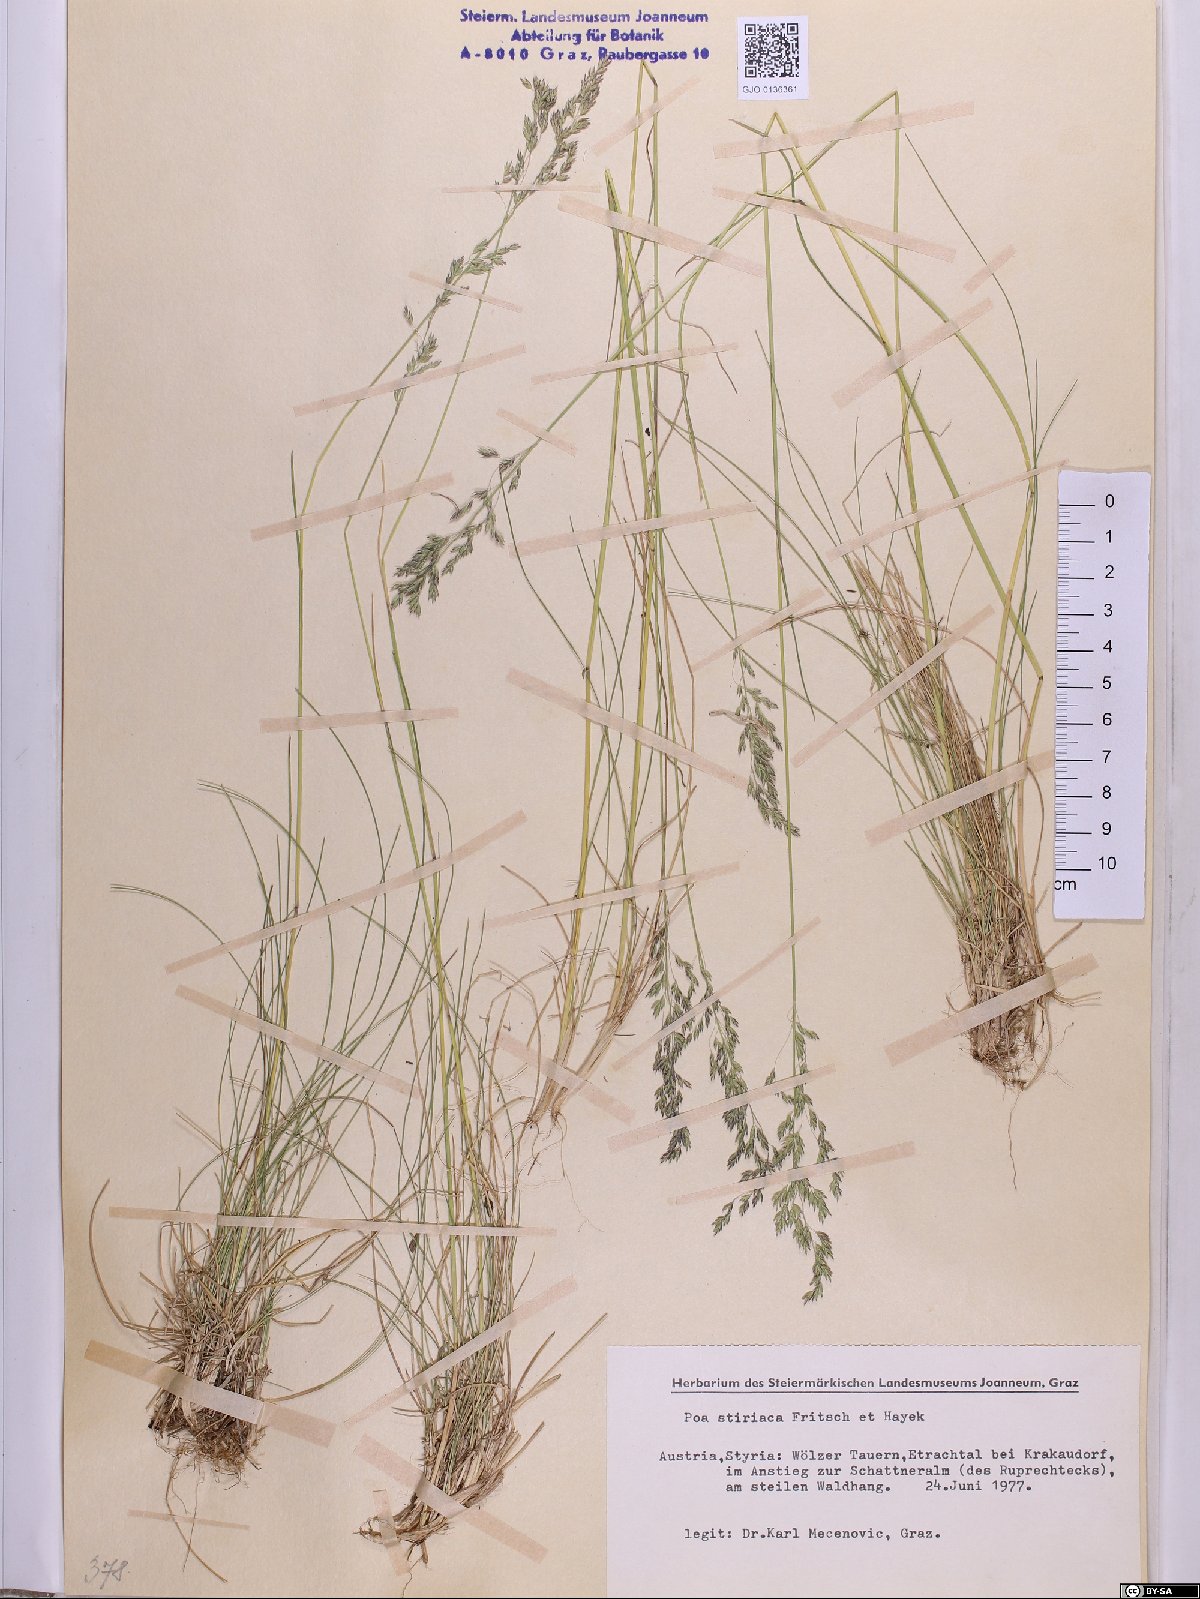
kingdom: Plantae
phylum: Tracheophyta
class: Liliopsida
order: Poales
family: Poaceae
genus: Poa
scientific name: Poa stiriaca
